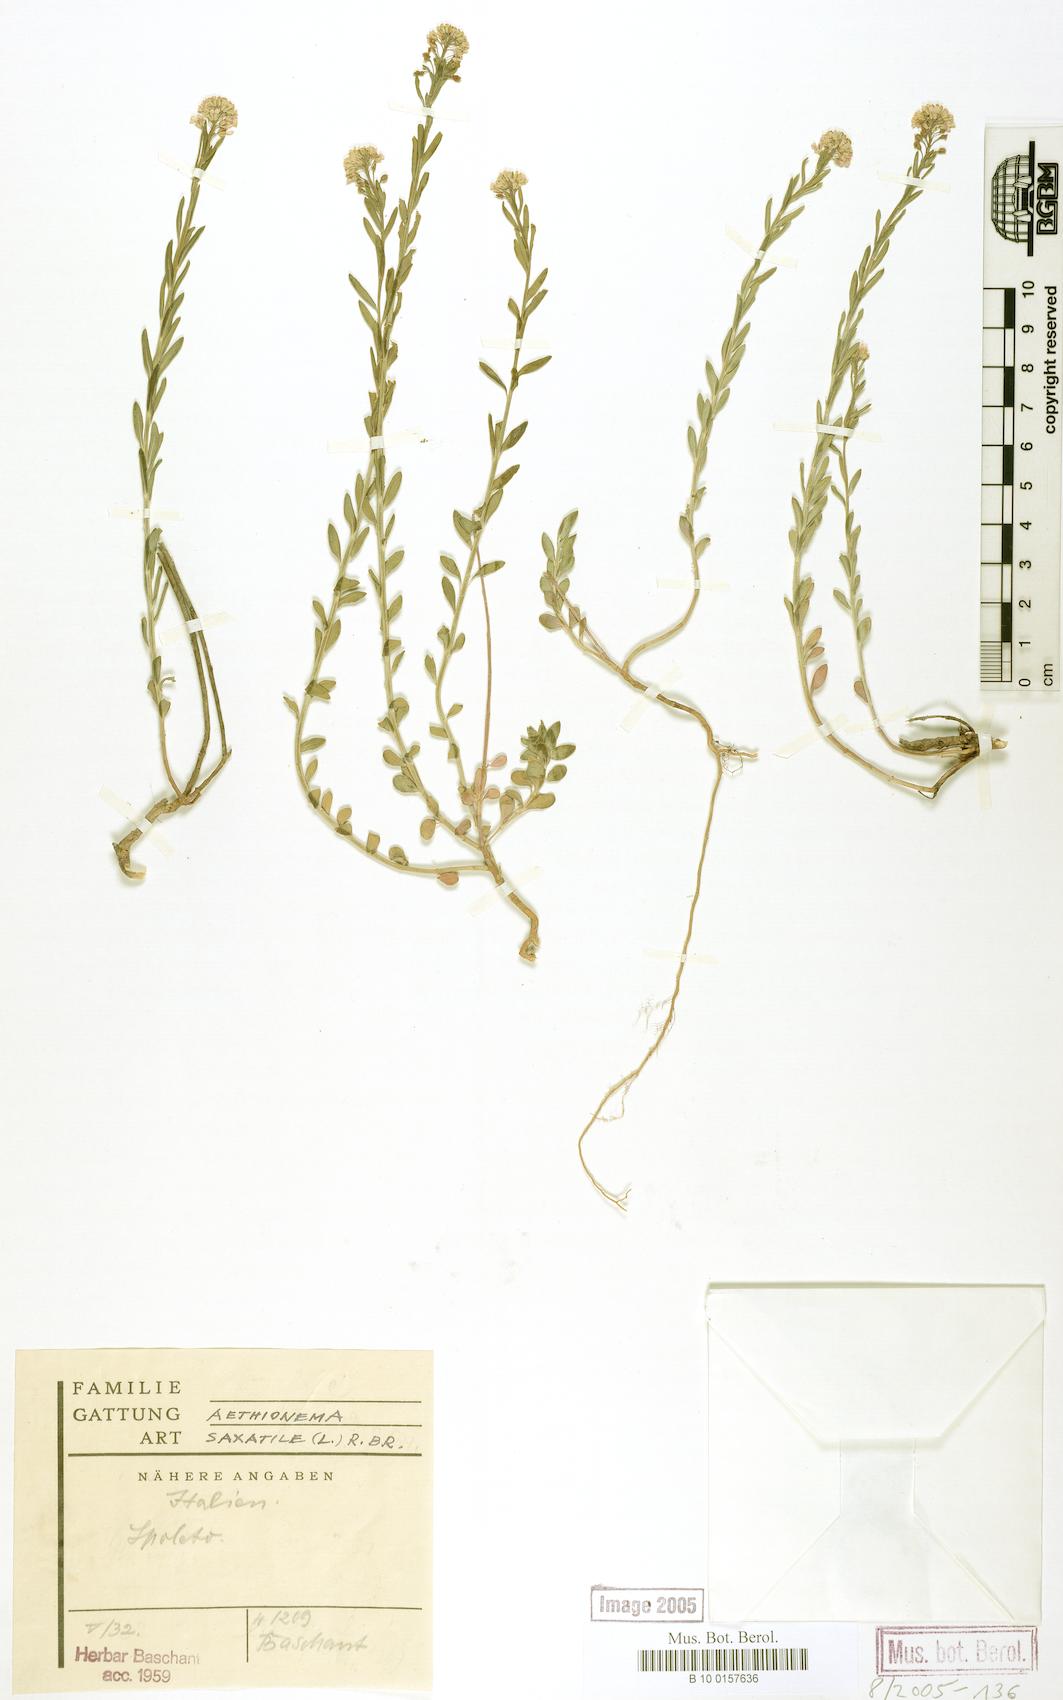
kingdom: Plantae
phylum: Tracheophyta
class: Magnoliopsida
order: Brassicales
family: Brassicaceae
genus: Aethionema
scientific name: Aethionema saxatile
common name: Burnt candytuft
